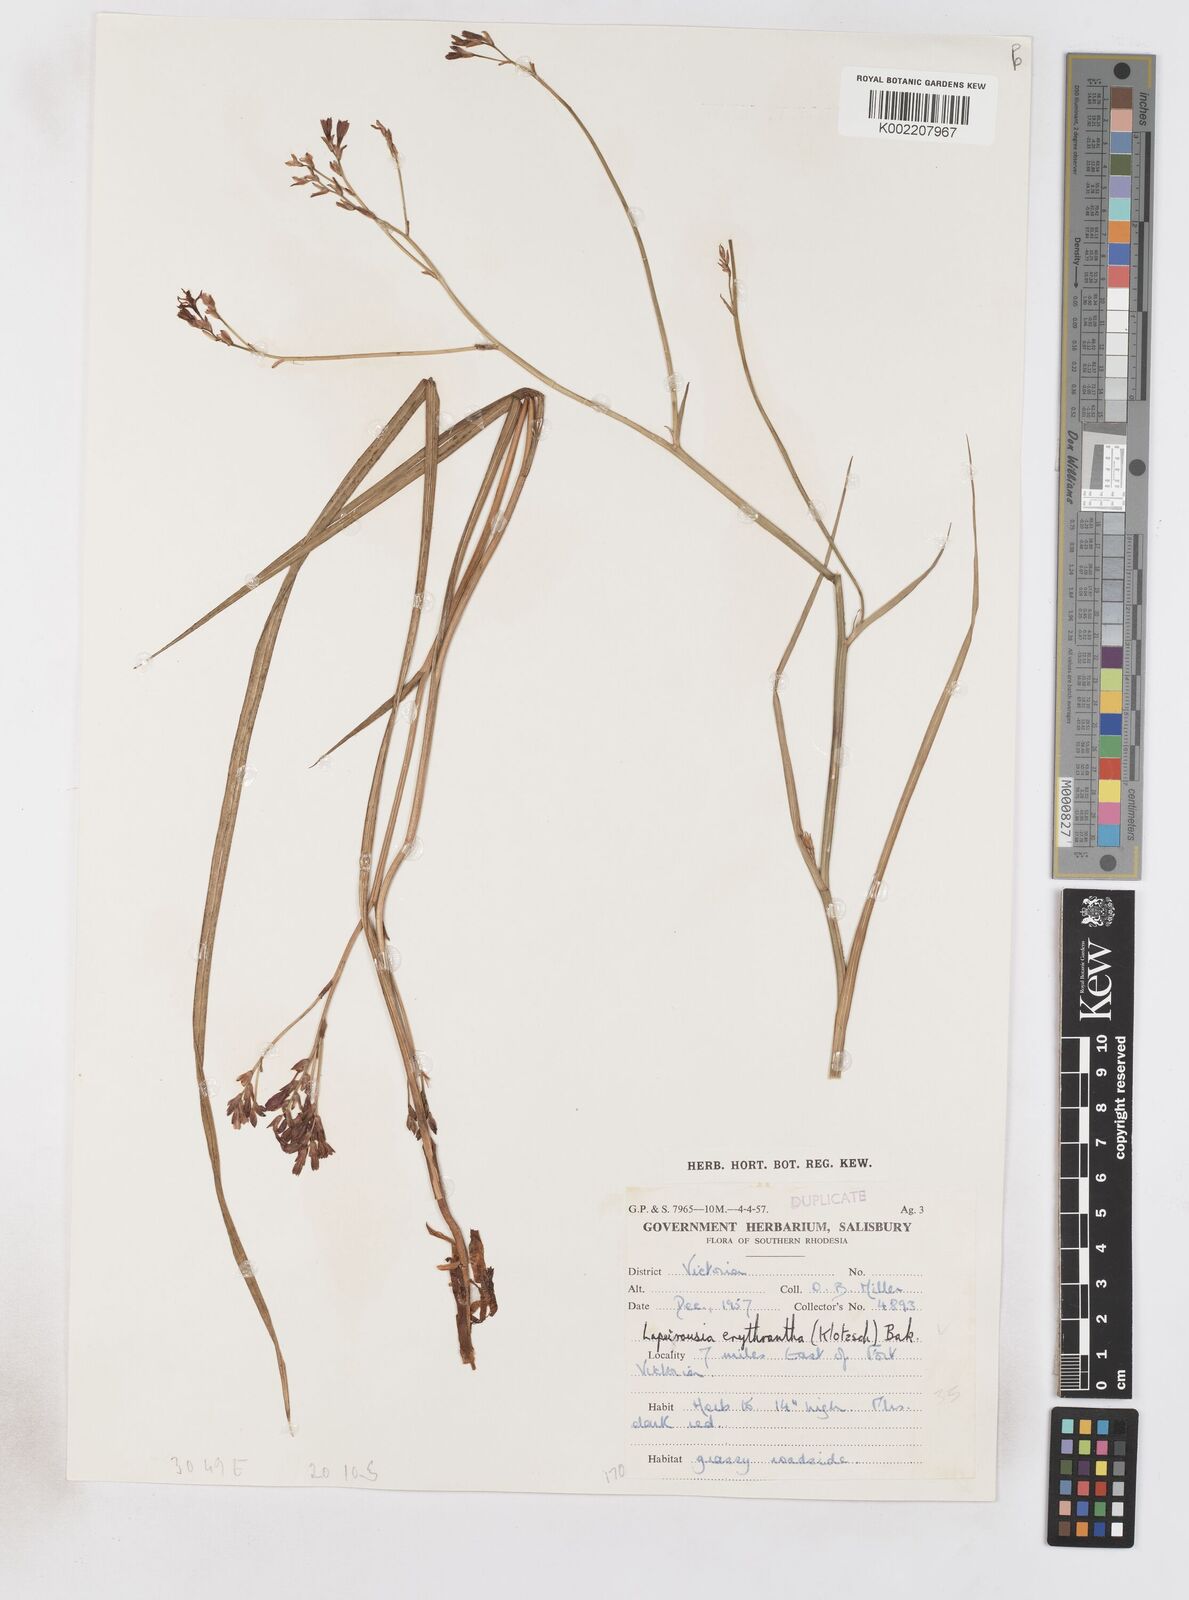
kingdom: Plantae
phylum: Tracheophyta
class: Liliopsida
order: Asparagales
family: Iridaceae
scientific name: Iridaceae
